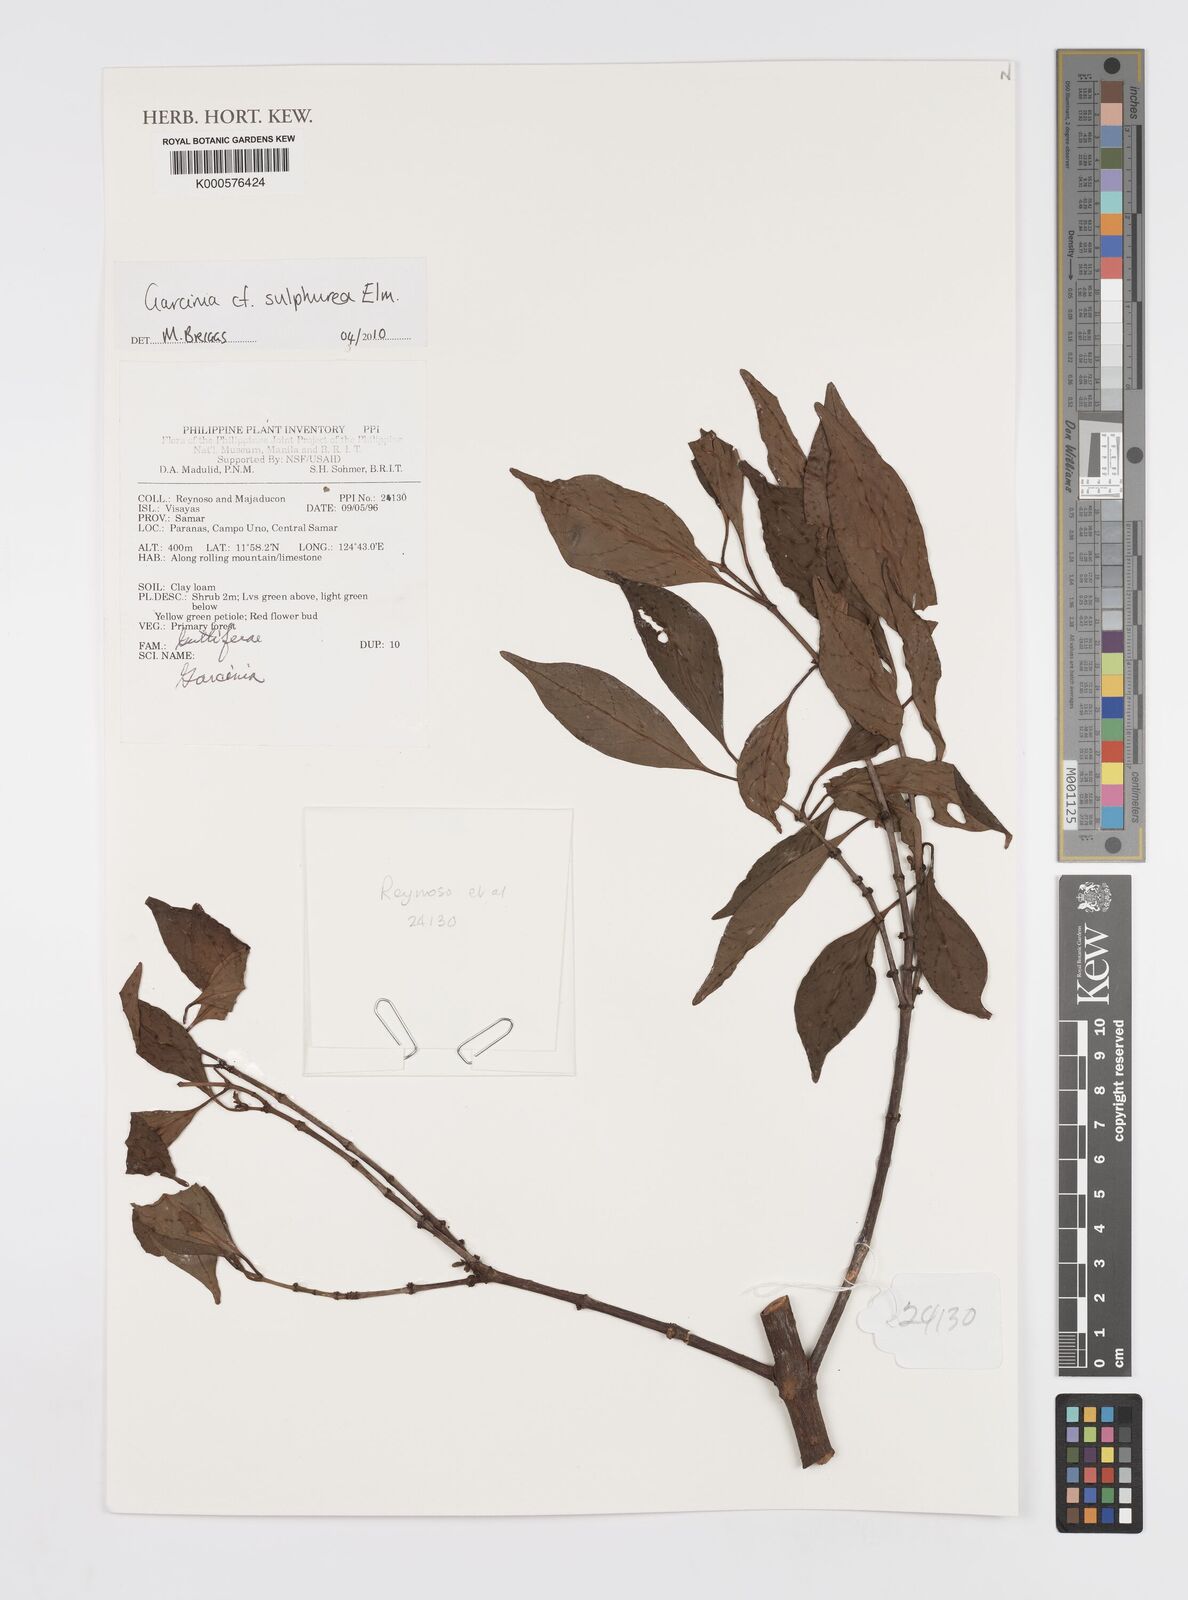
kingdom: Plantae
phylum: Tracheophyta
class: Magnoliopsida
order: Malpighiales
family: Clusiaceae
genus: Garcinia
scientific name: Garcinia sulphurea
